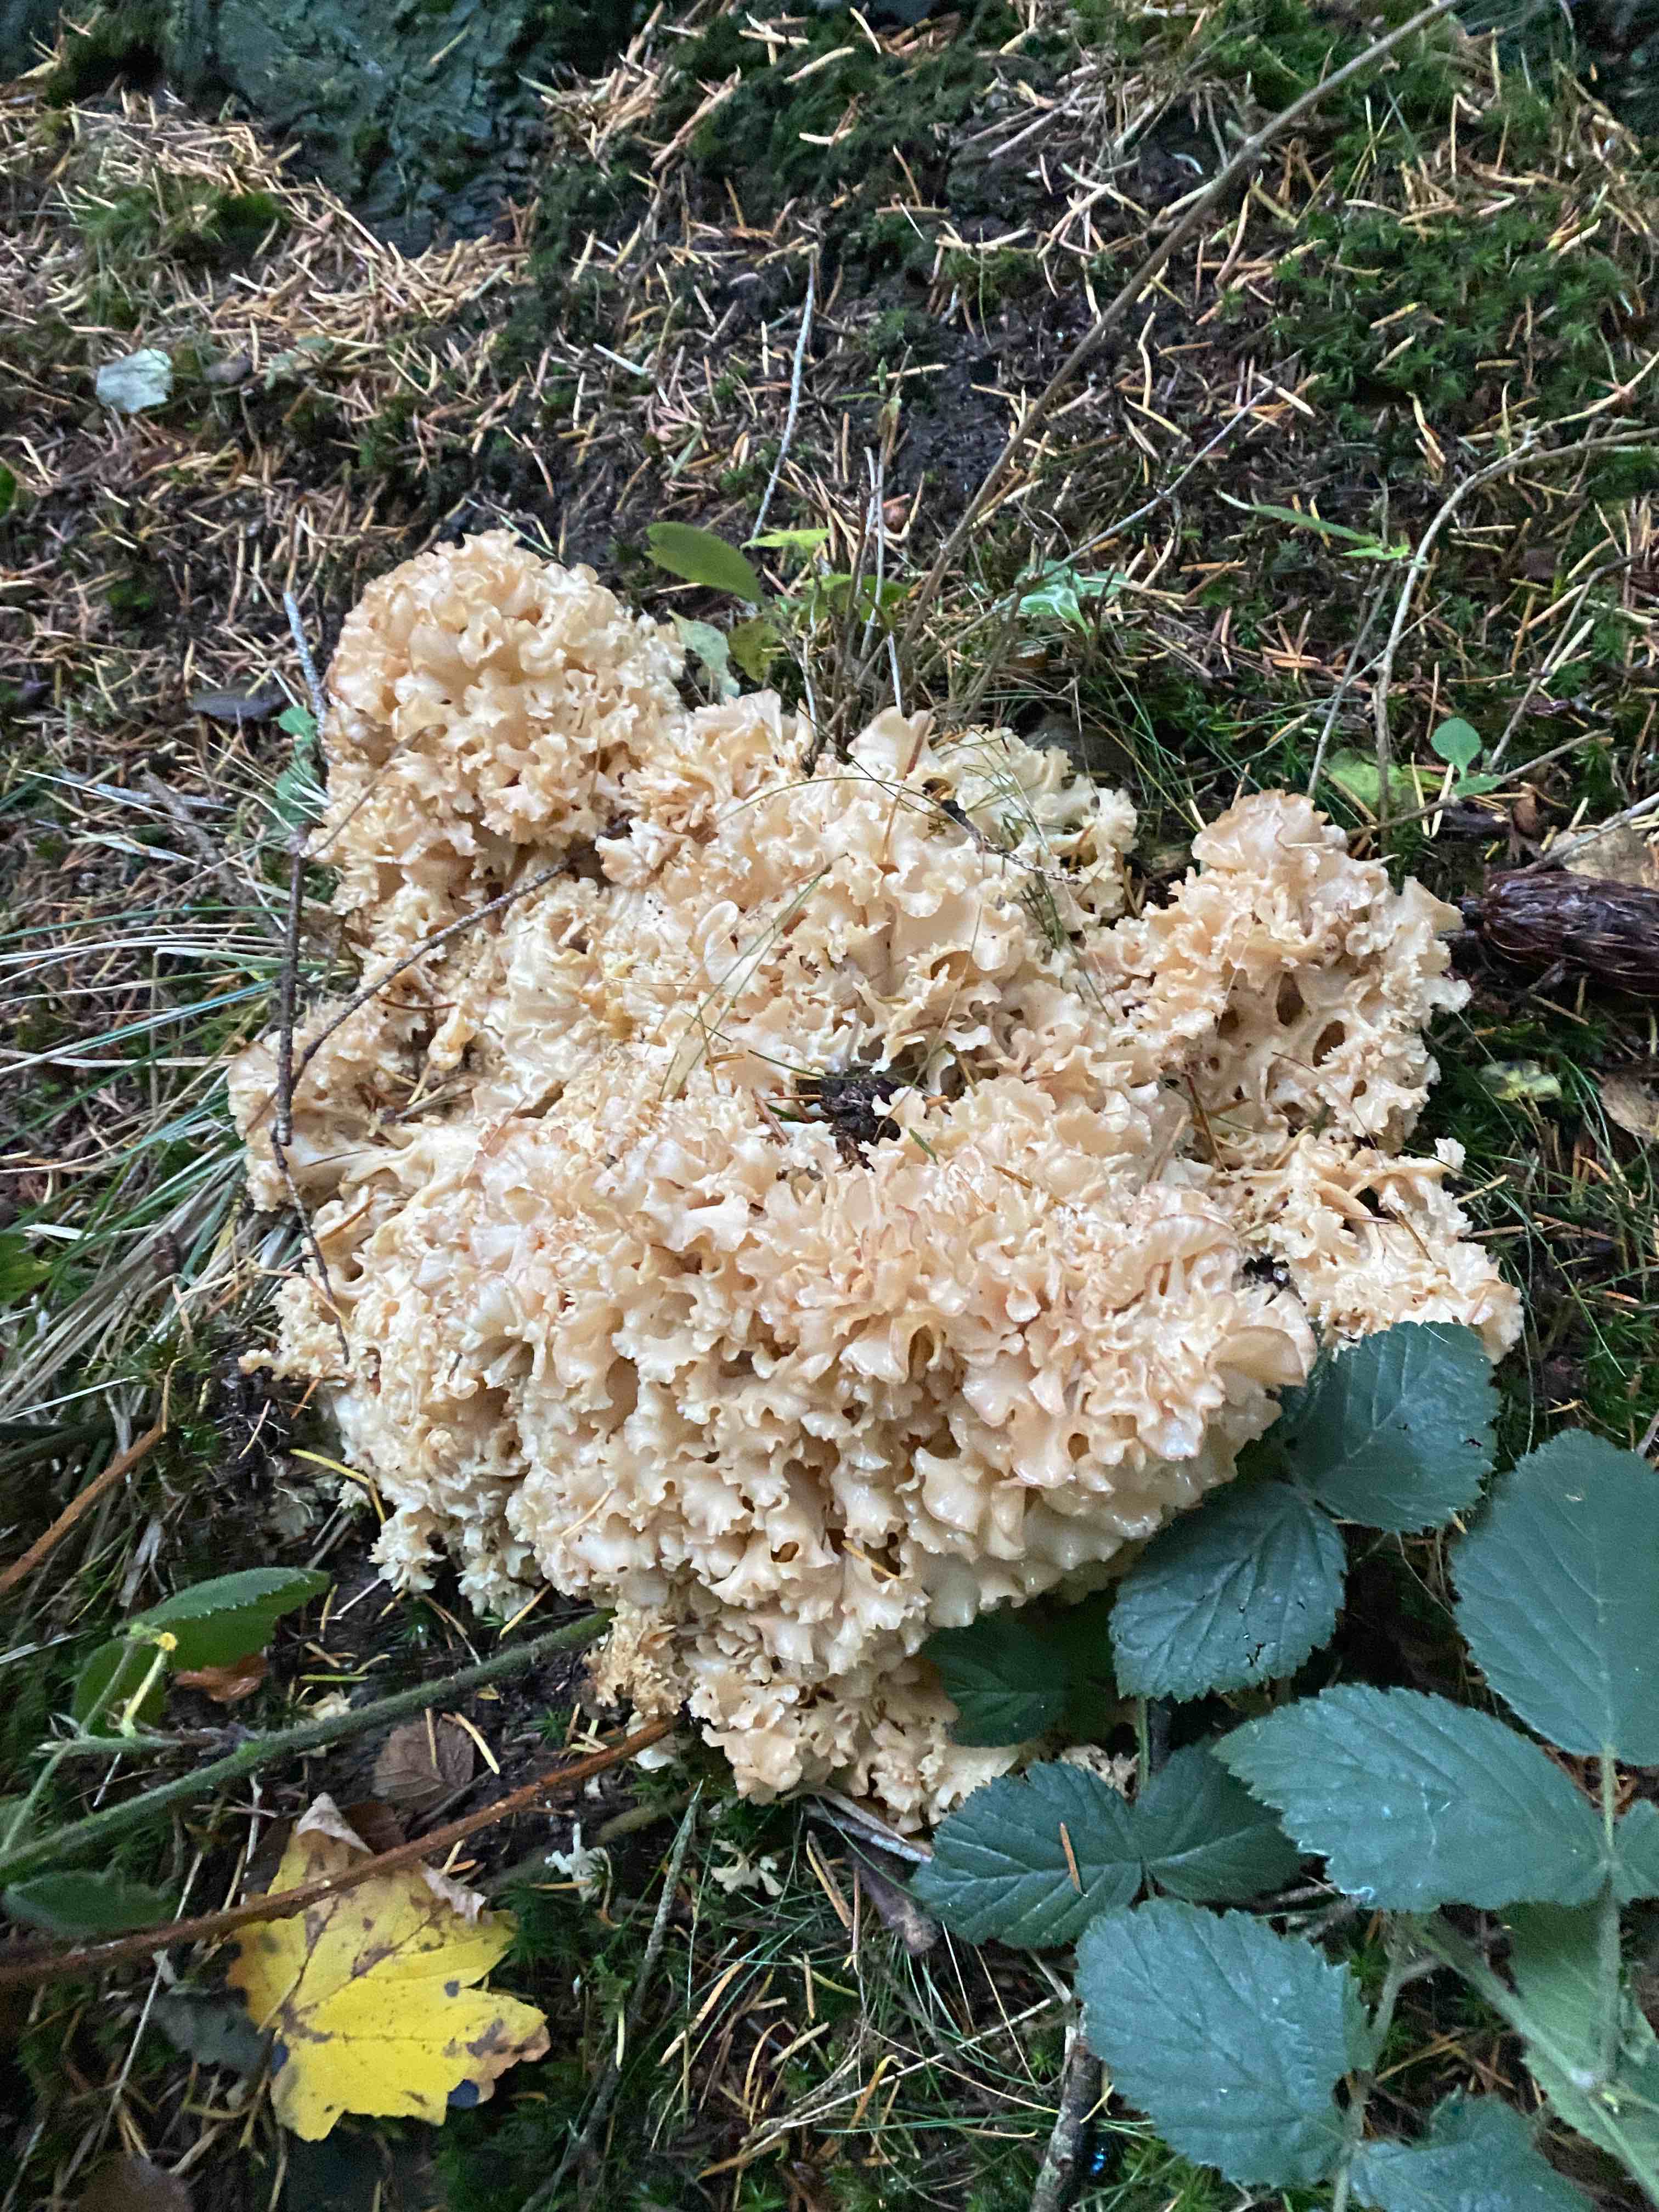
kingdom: Fungi
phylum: Basidiomycota
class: Agaricomycetes
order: Polyporales
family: Sparassidaceae
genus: Sparassis
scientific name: Sparassis crispa
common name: kruset blomkålssvamp
